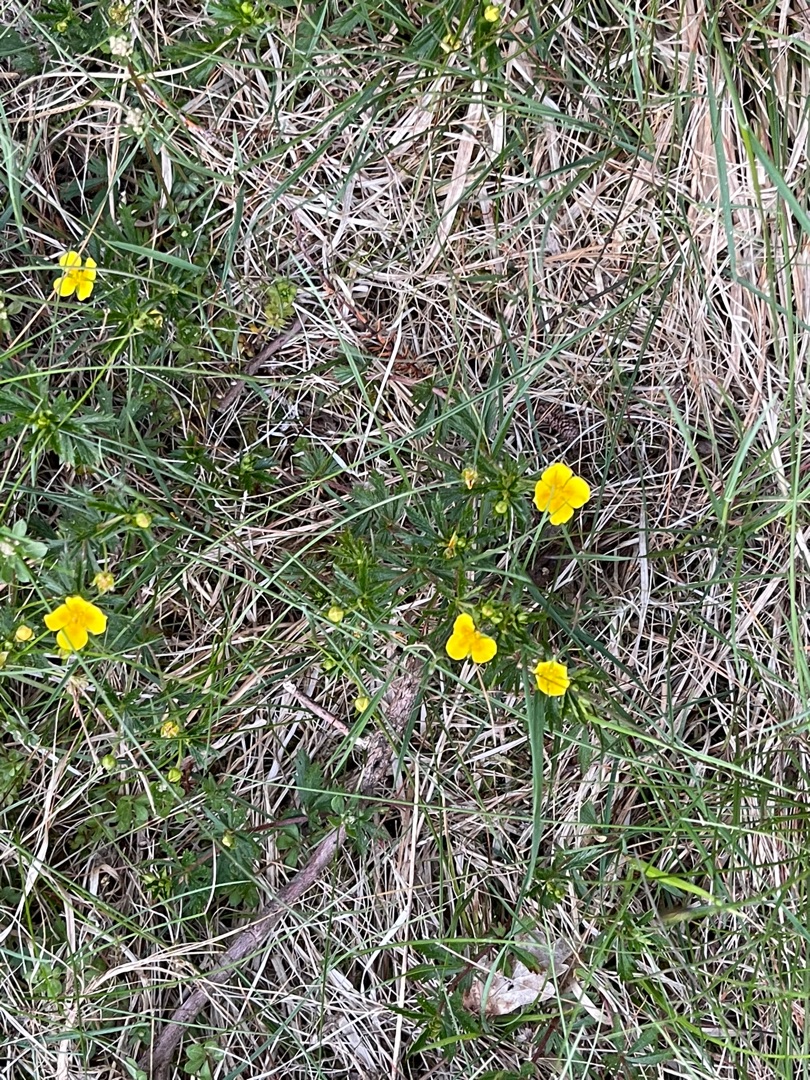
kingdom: Plantae
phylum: Tracheophyta
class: Magnoliopsida
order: Rosales
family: Rosaceae
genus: Potentilla
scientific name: Potentilla erecta
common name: Tormentil
